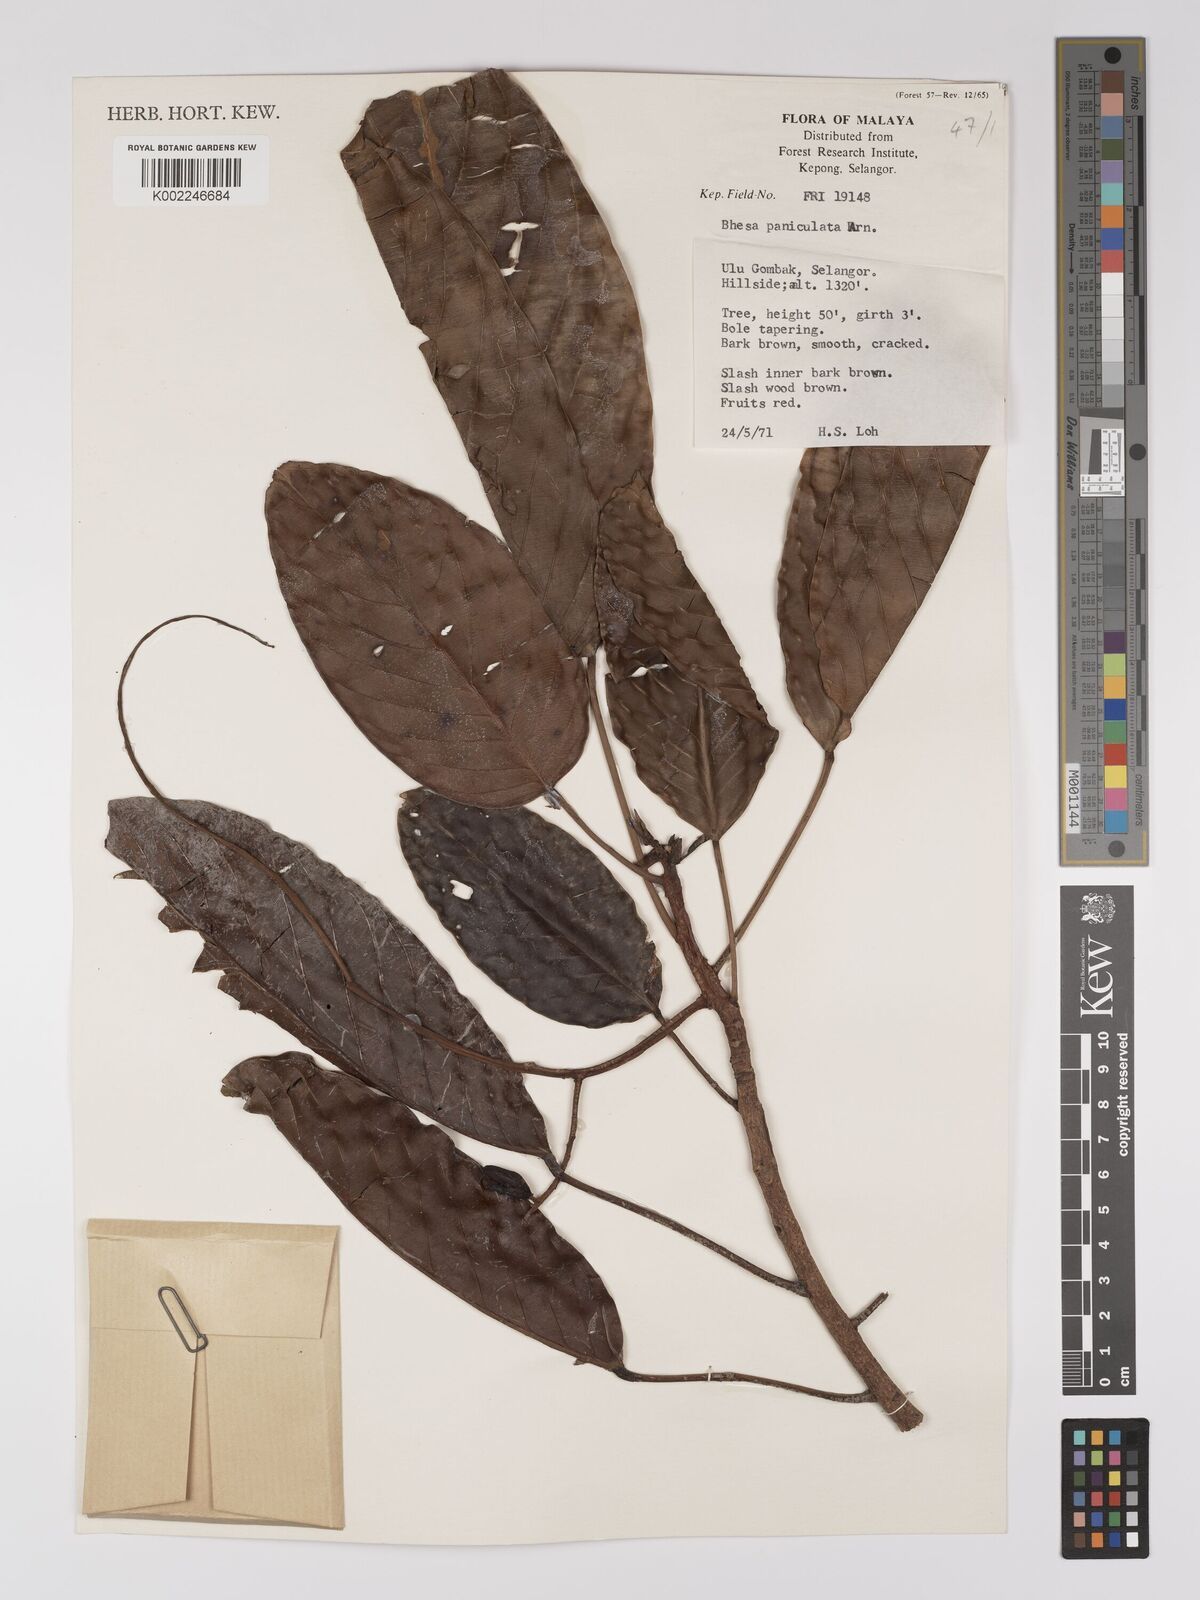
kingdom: Plantae
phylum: Tracheophyta
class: Magnoliopsida
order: Malpighiales
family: Centroplacaceae
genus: Bhesa
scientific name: Bhesa paniculata
